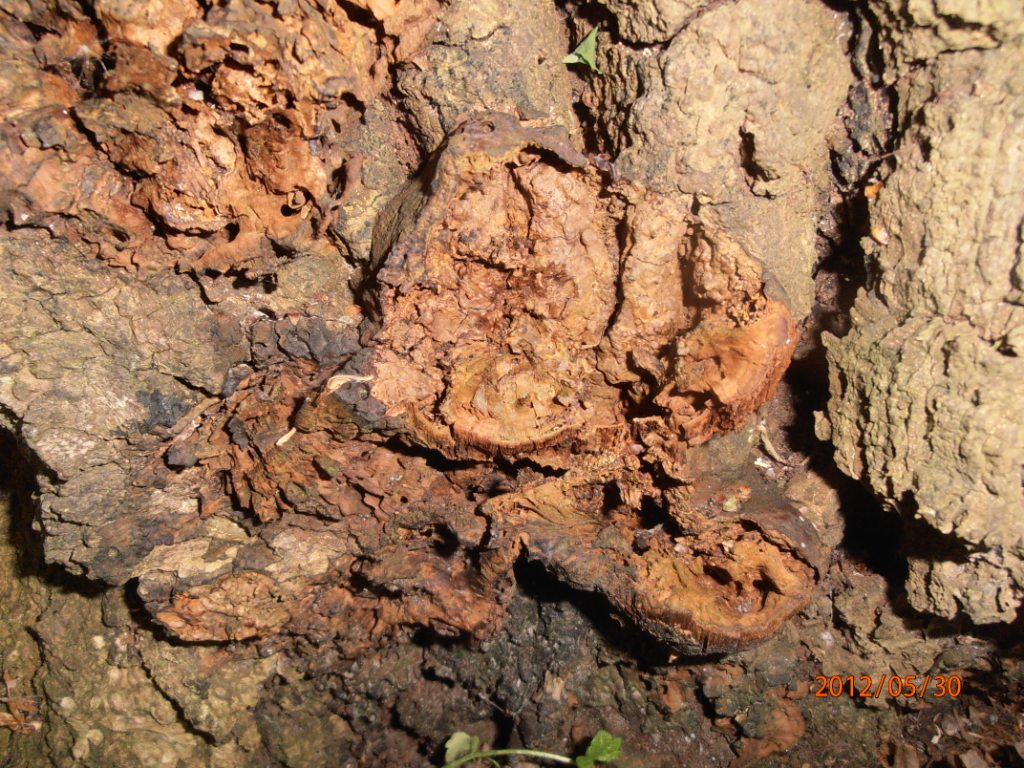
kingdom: Fungi
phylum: Basidiomycota
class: Agaricomycetes
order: Hymenochaetales
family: Hymenochaetaceae
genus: Pseudoinonotus
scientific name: Pseudoinonotus dryadeus
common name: ege-spejlporesvamp
